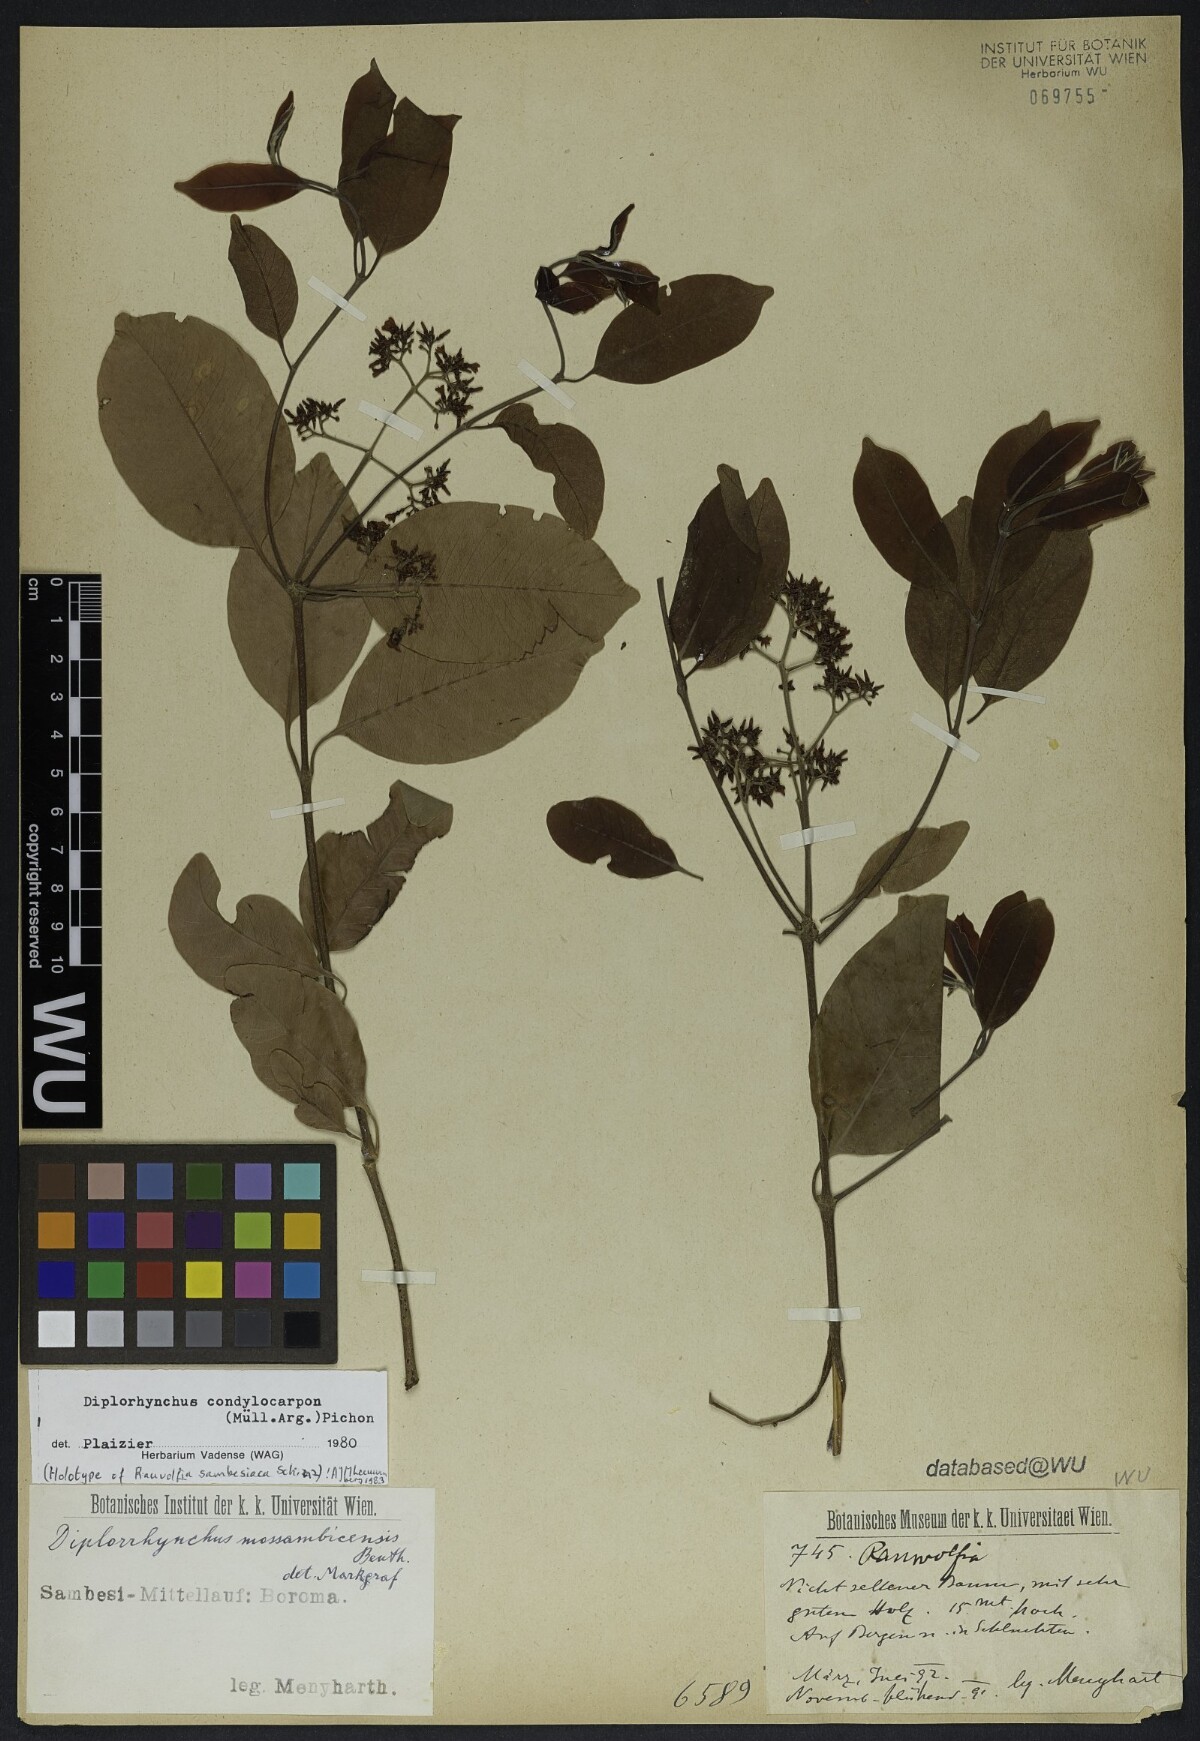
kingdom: Plantae
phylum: Tracheophyta
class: Magnoliopsida
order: Gentianales
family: Apocynaceae
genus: Rauvolfia
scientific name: Rauvolfia mombasiana
